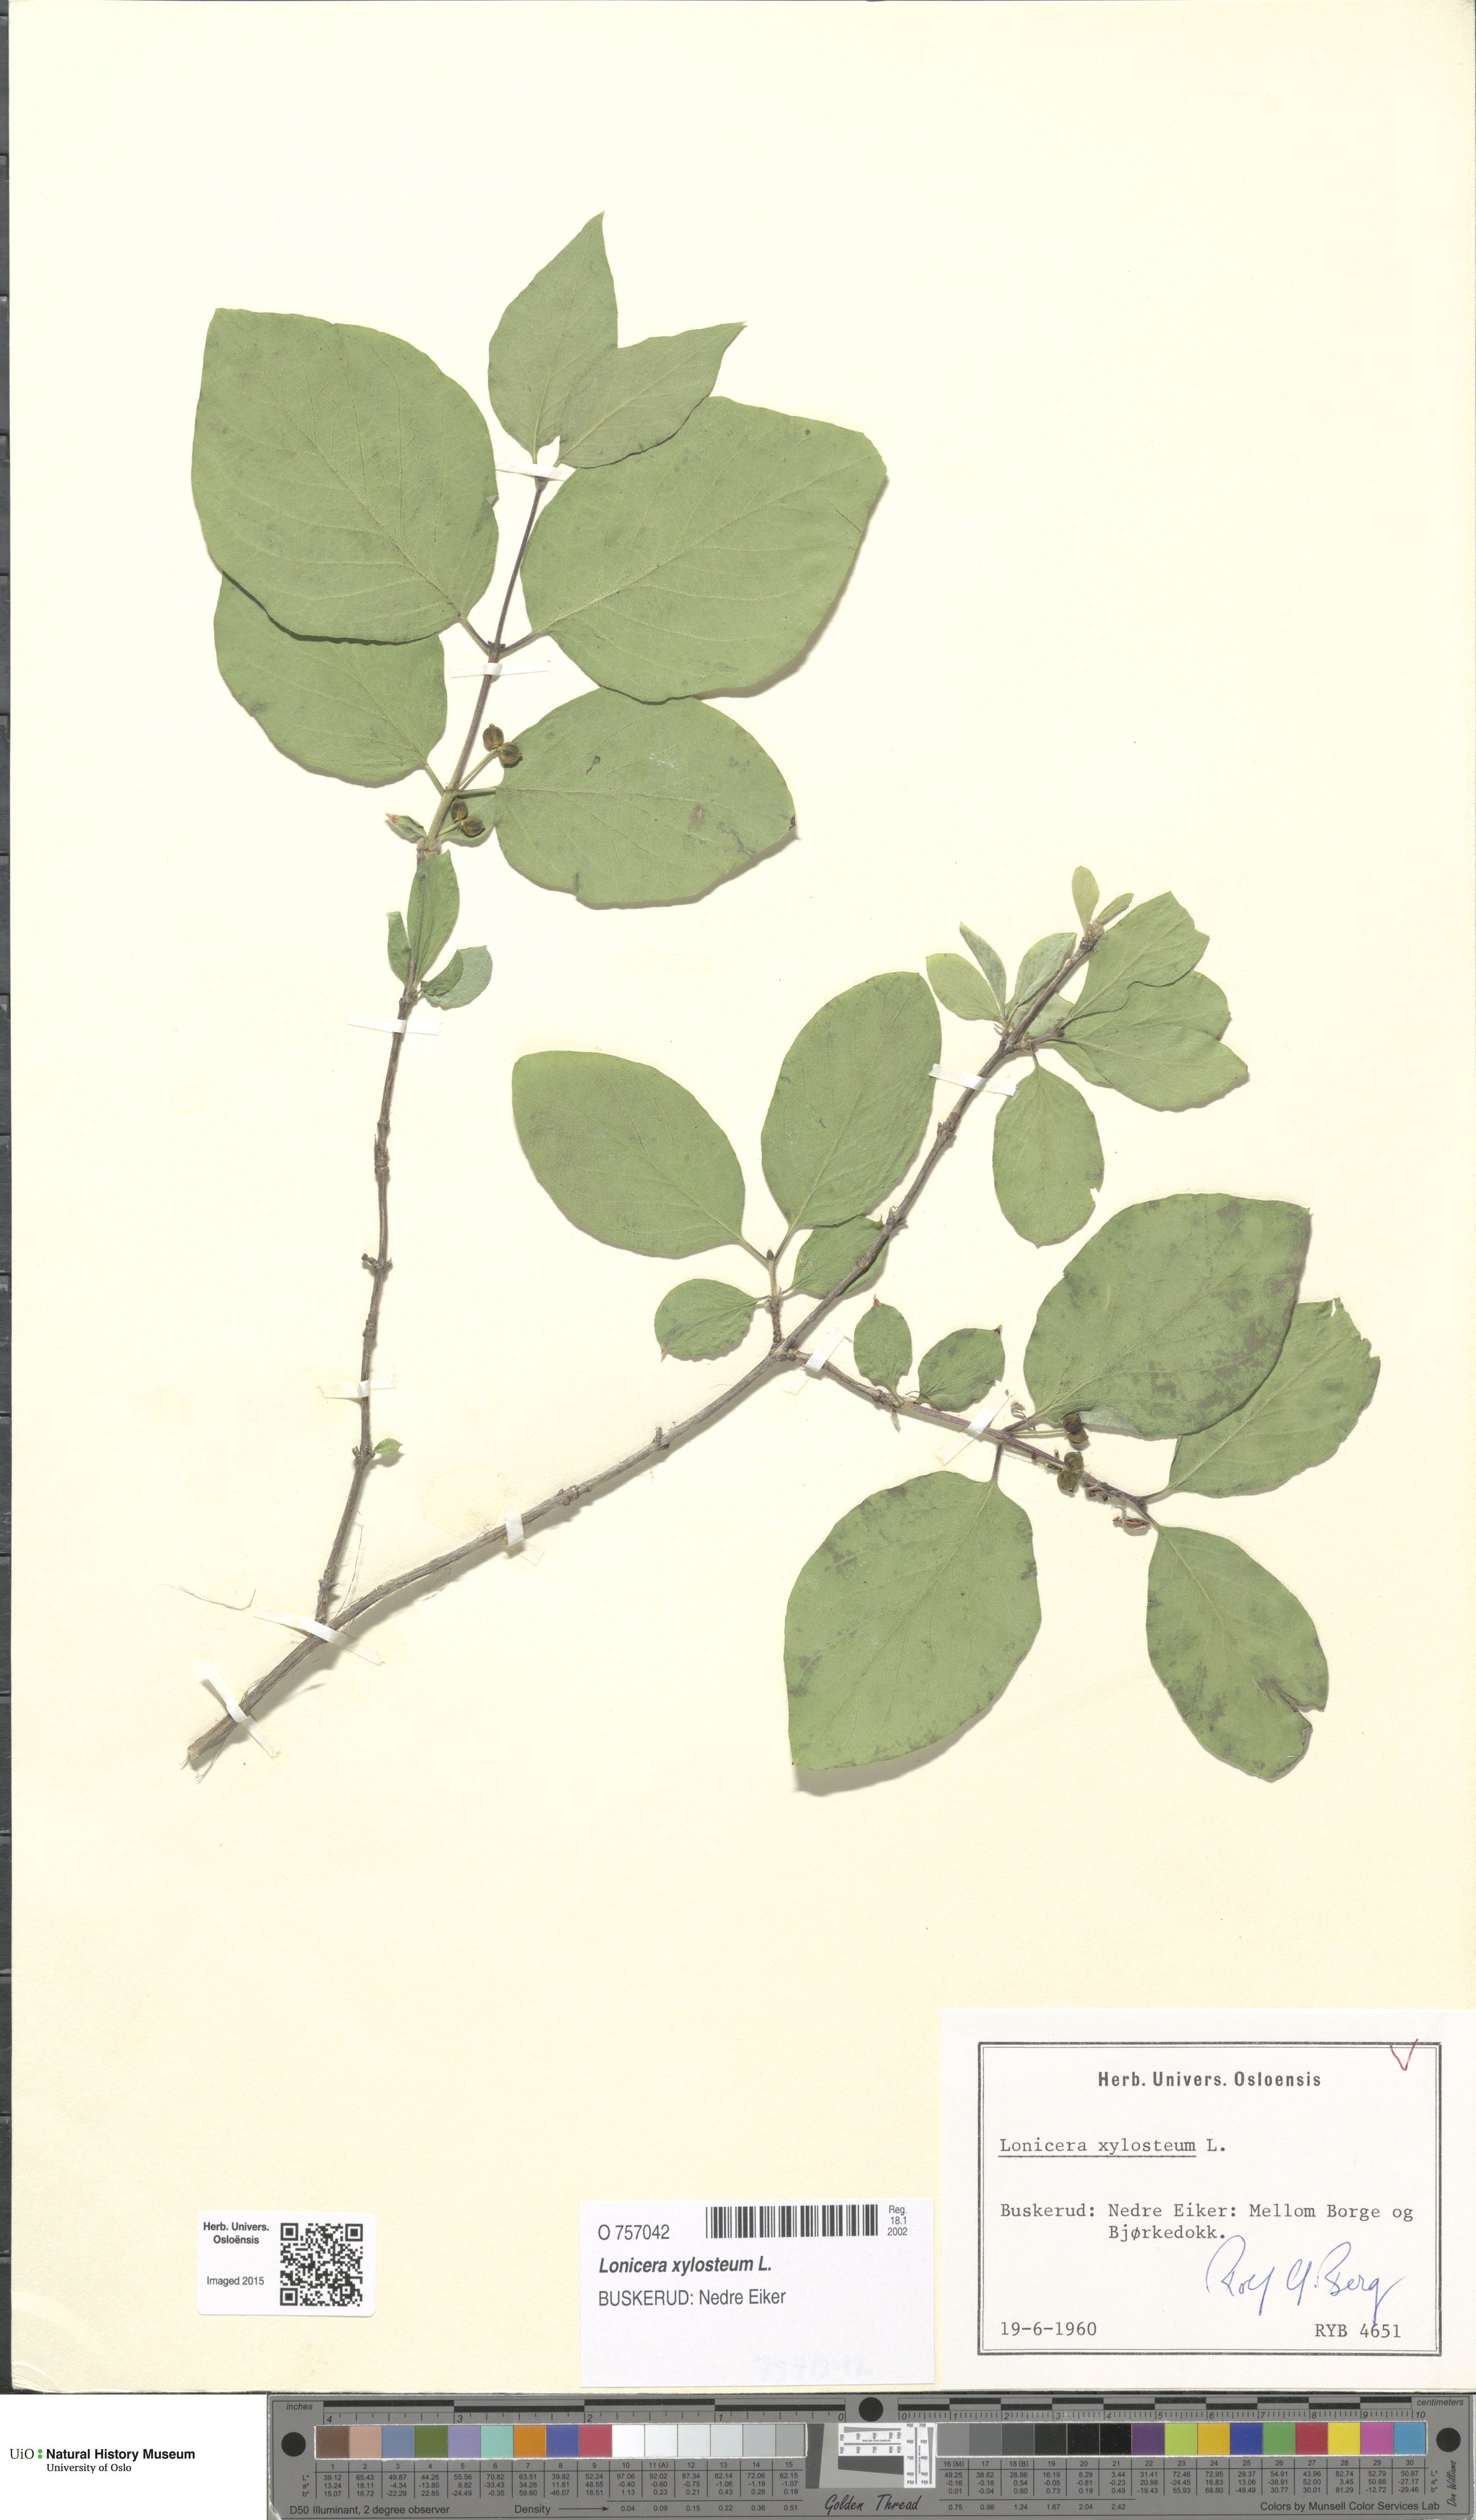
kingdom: Plantae
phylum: Tracheophyta
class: Magnoliopsida
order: Dipsacales
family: Caprifoliaceae
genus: Lonicera
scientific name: Lonicera xylosteum
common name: Fly honeysuckle
